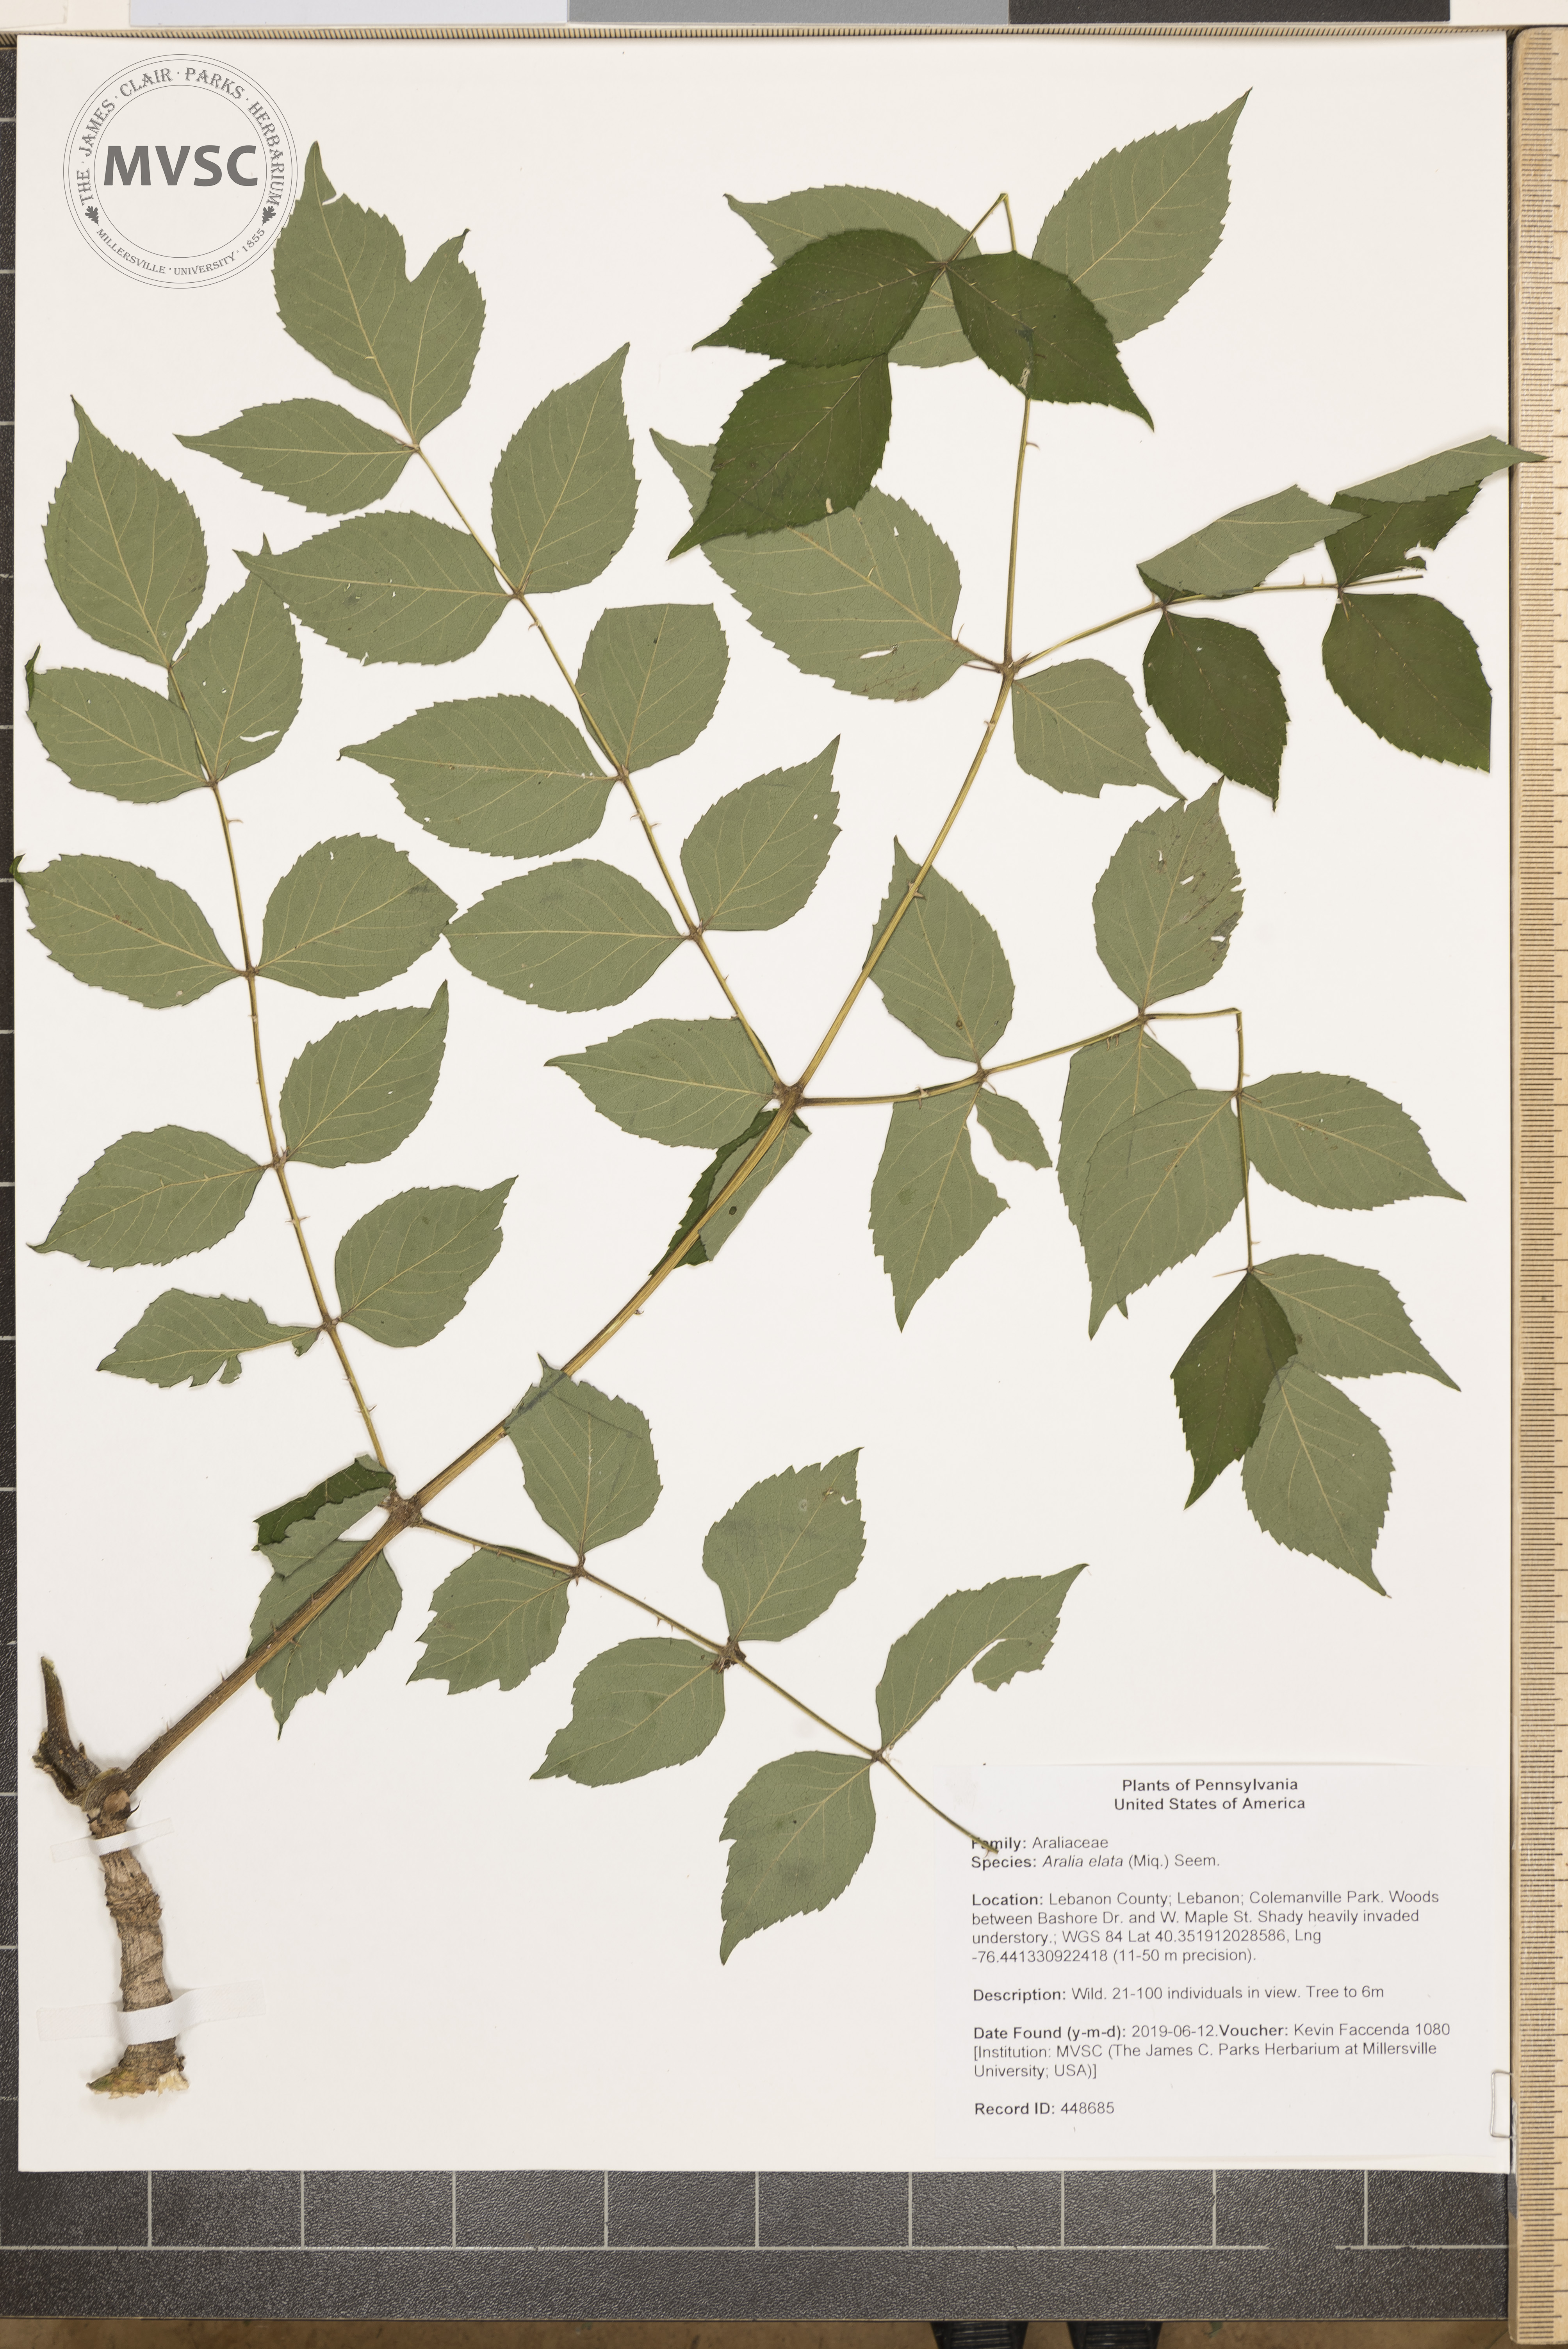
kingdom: Plantae
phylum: Tracheophyta
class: Magnoliopsida
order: Apiales
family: Araliaceae
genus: Aralia
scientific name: Aralia elata
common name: Japanese angelica-tree
